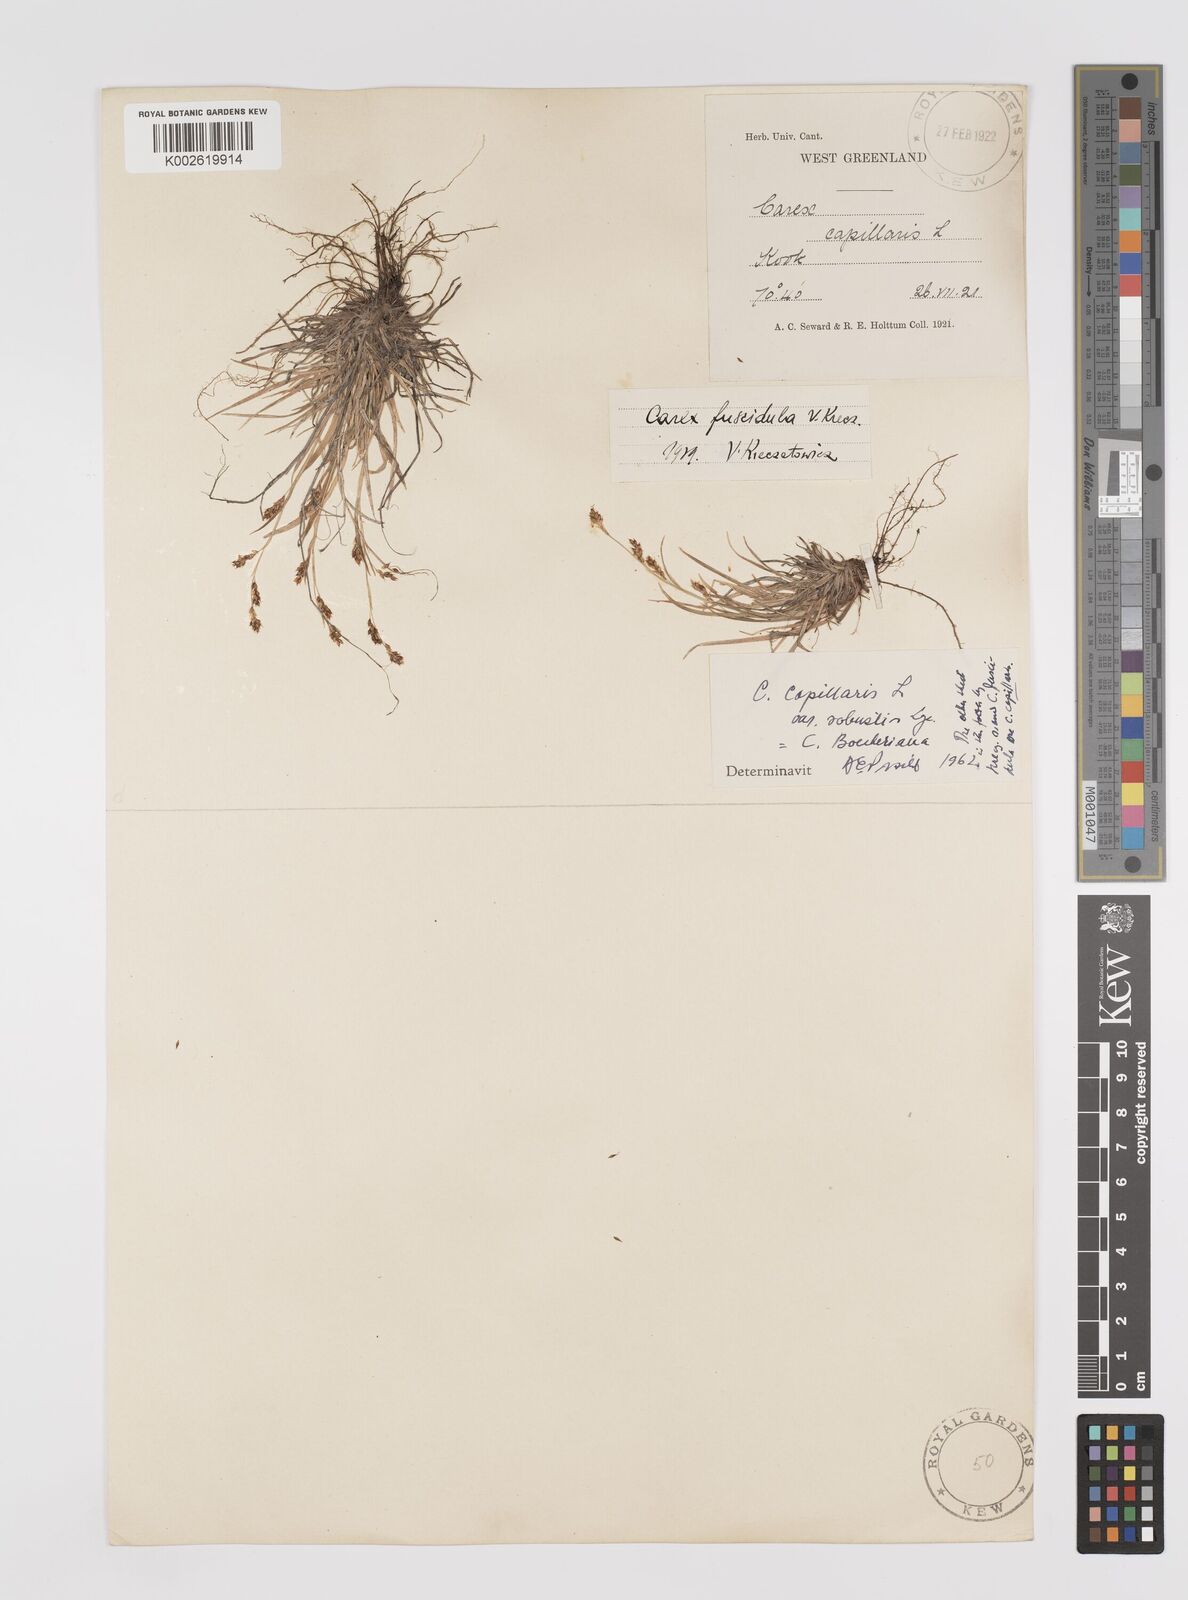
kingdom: Plantae
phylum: Tracheophyta
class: Liliopsida
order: Poales
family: Cyperaceae
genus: Carex
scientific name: Carex capillaris
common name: Hair sedge
